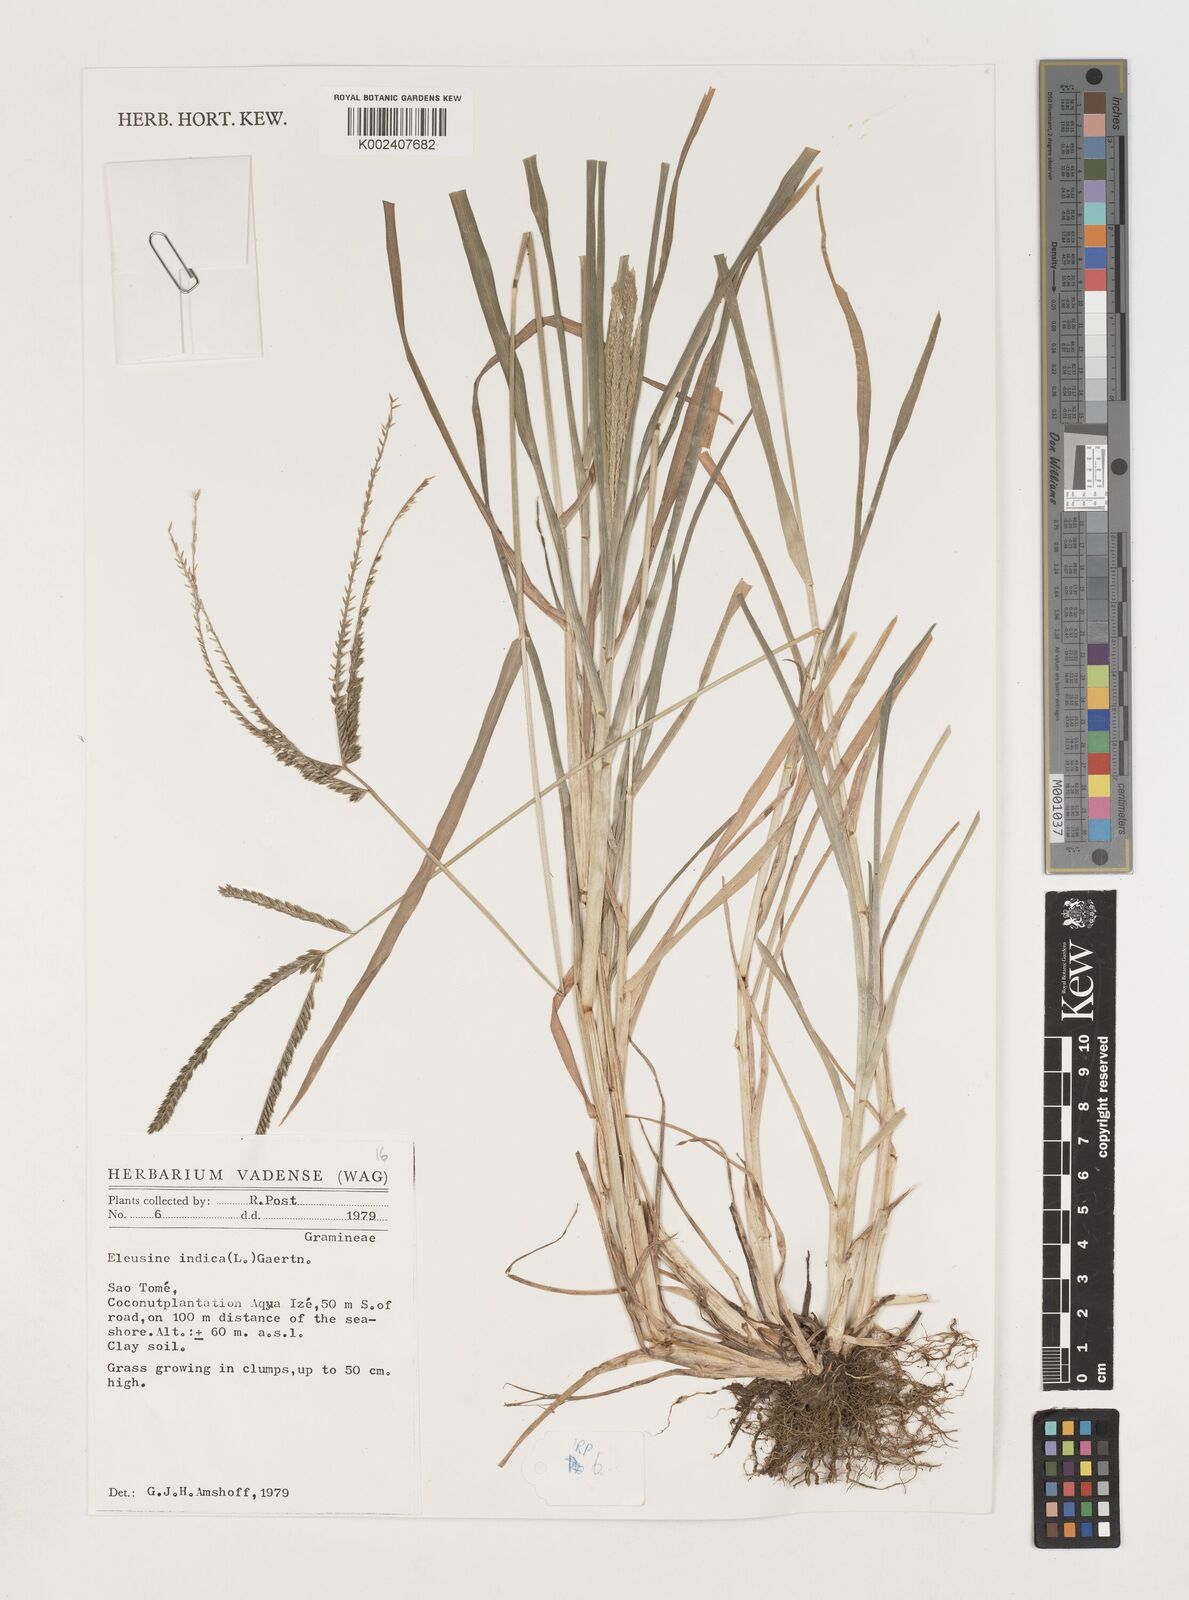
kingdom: Plantae
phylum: Tracheophyta
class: Liliopsida
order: Poales
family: Poaceae
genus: Eleusine
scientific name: Eleusine indica
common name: Yard-grass
